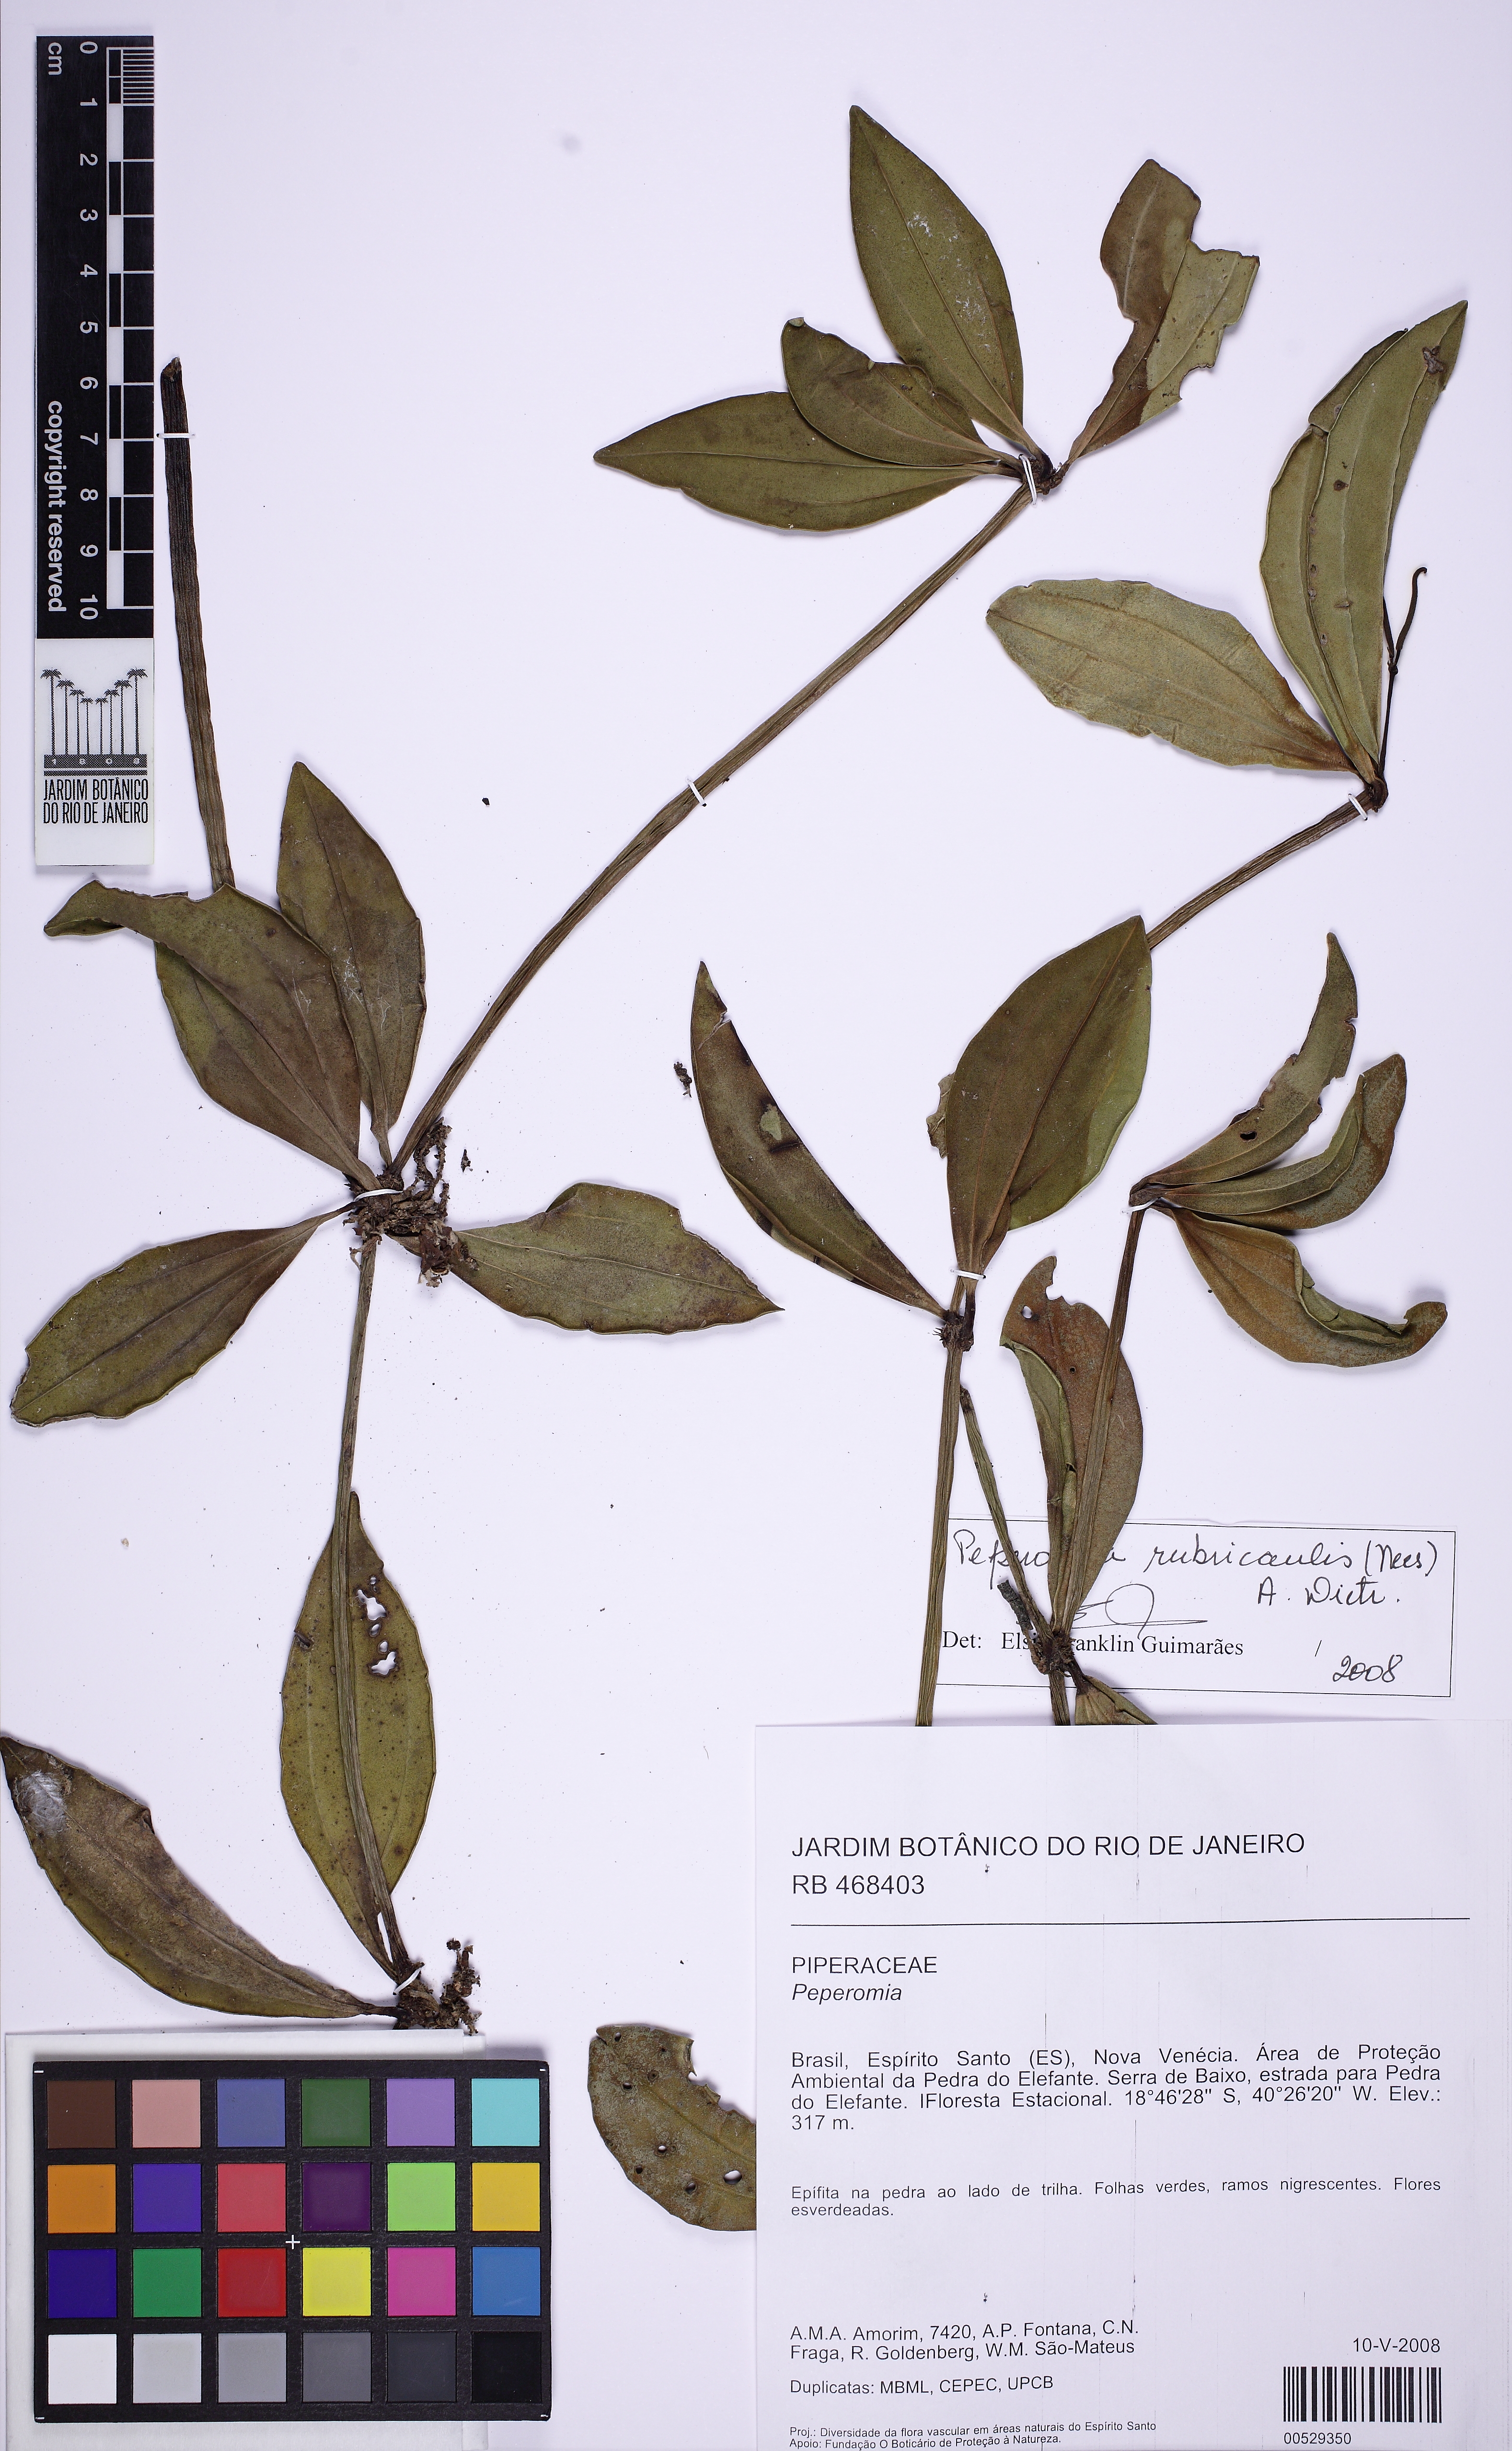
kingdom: Plantae
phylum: Tracheophyta
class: Magnoliopsida
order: Piperales
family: Piperaceae
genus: Peperomia
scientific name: Peperomia hirtellicaulis
